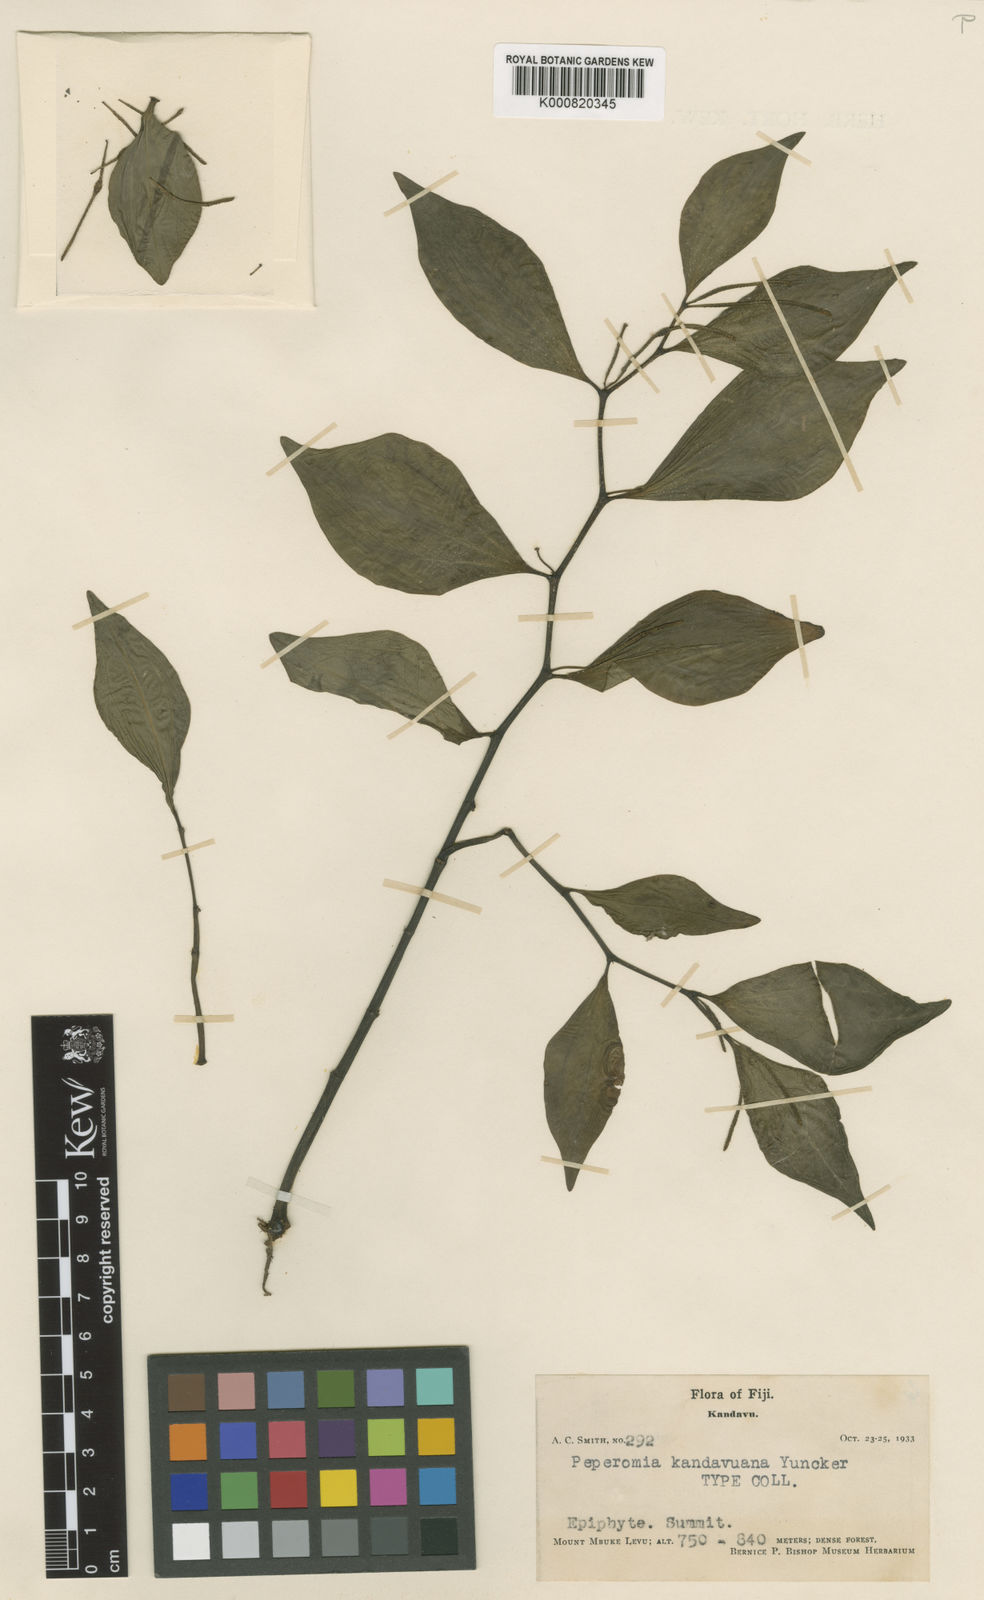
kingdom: Plantae
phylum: Tracheophyta
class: Magnoliopsida
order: Piperales
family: Piperaceae
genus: Peperomia
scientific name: Peperomia lasiostigma
